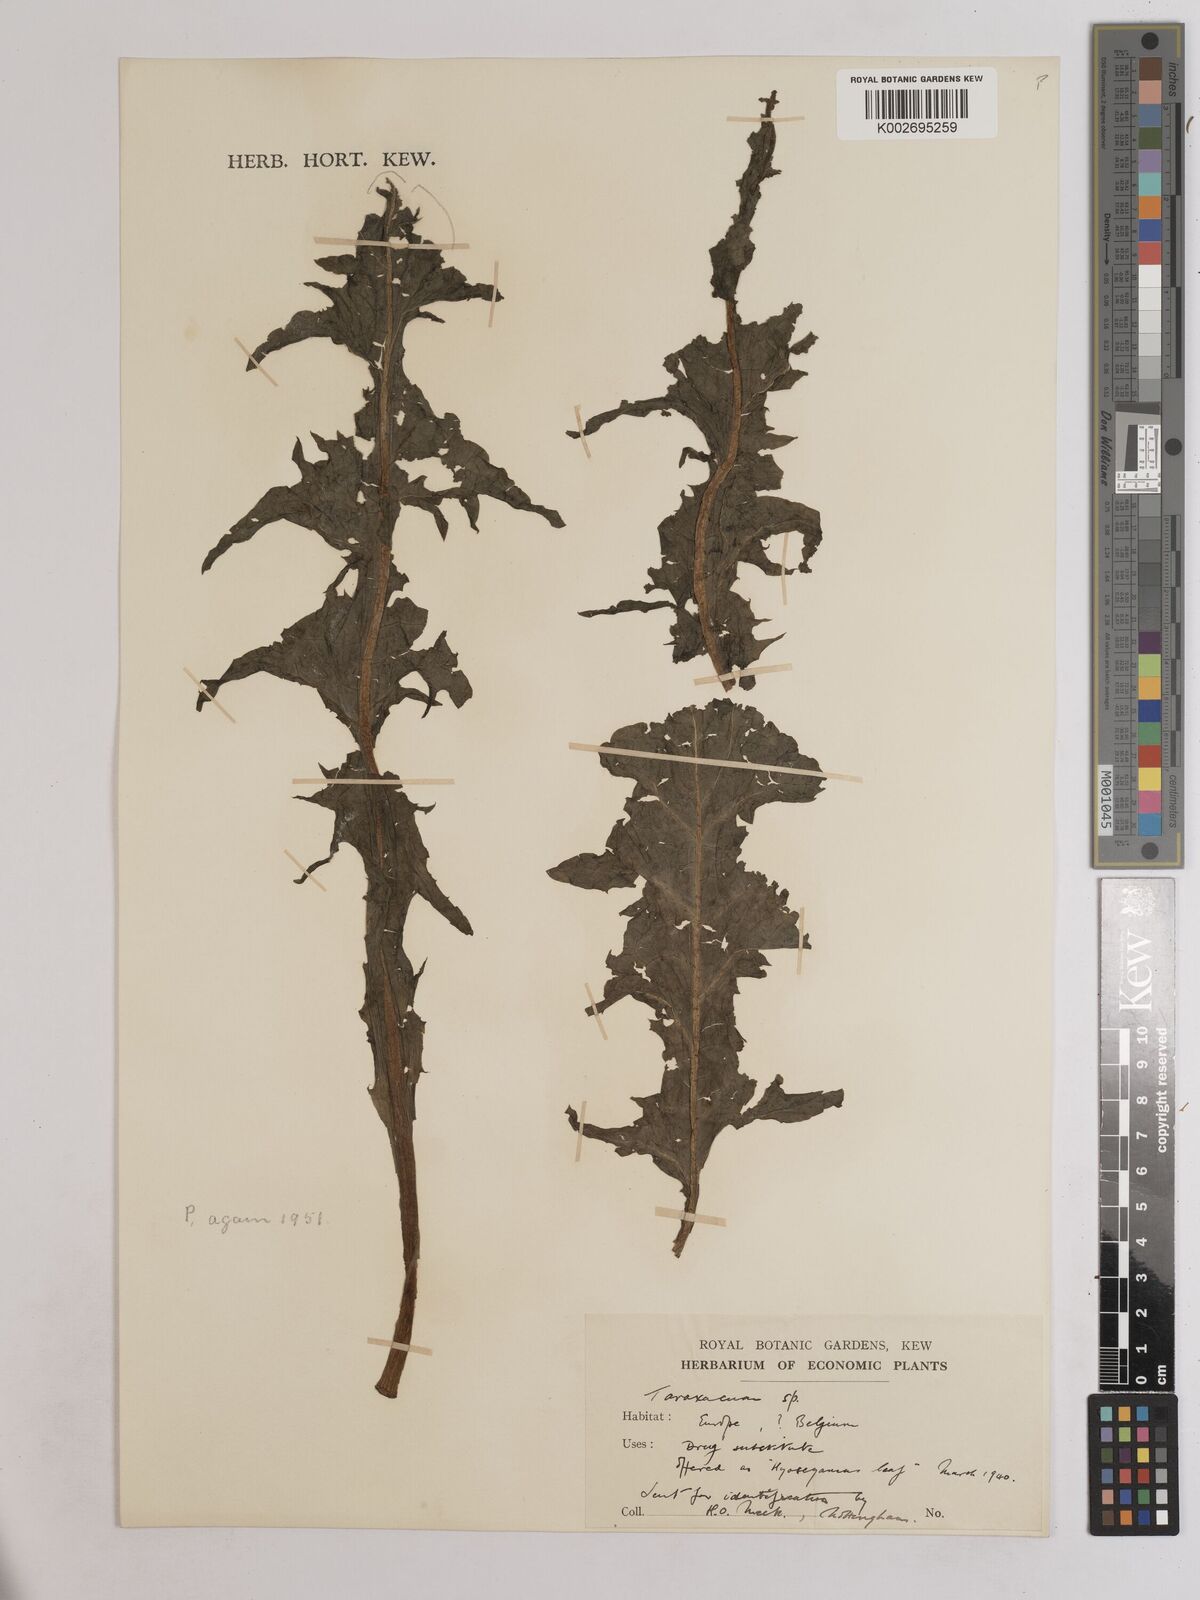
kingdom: Plantae
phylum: Tracheophyta
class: Magnoliopsida
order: Asterales
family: Asteraceae
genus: Taraxacum
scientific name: Taraxacum
